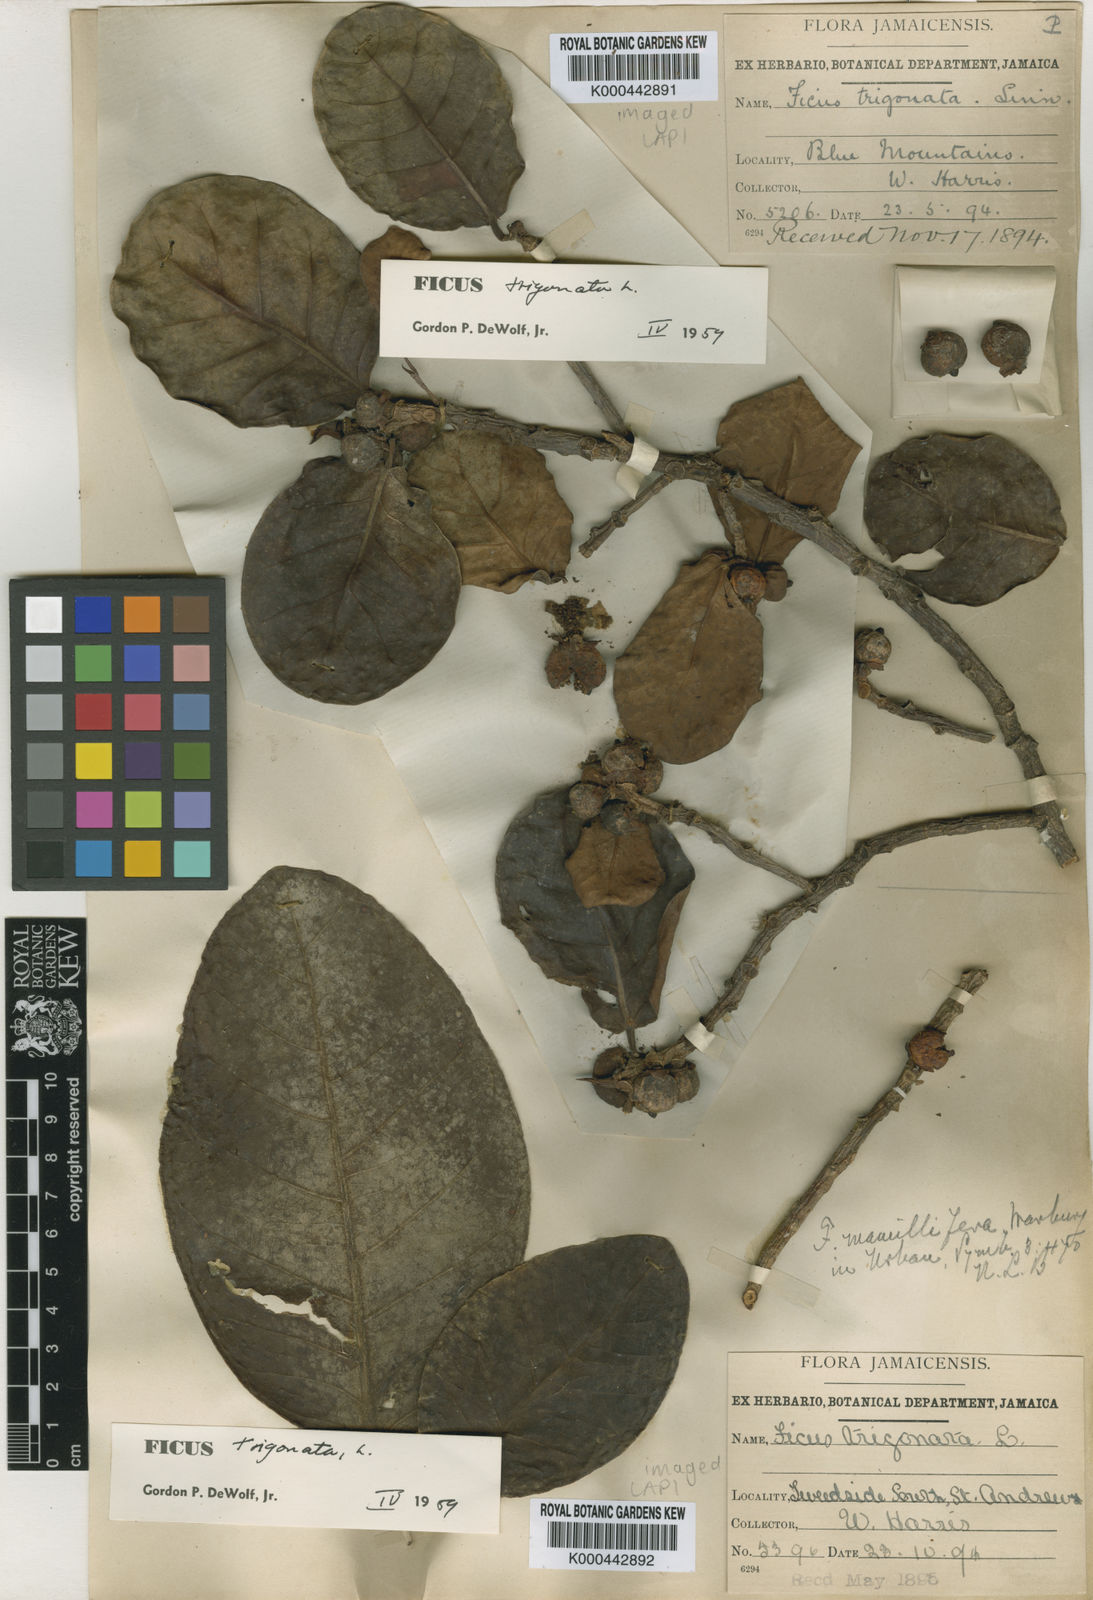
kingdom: Plantae
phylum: Tracheophyta
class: Magnoliopsida
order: Rosales
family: Moraceae
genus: Ficus
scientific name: Ficus trigonata
